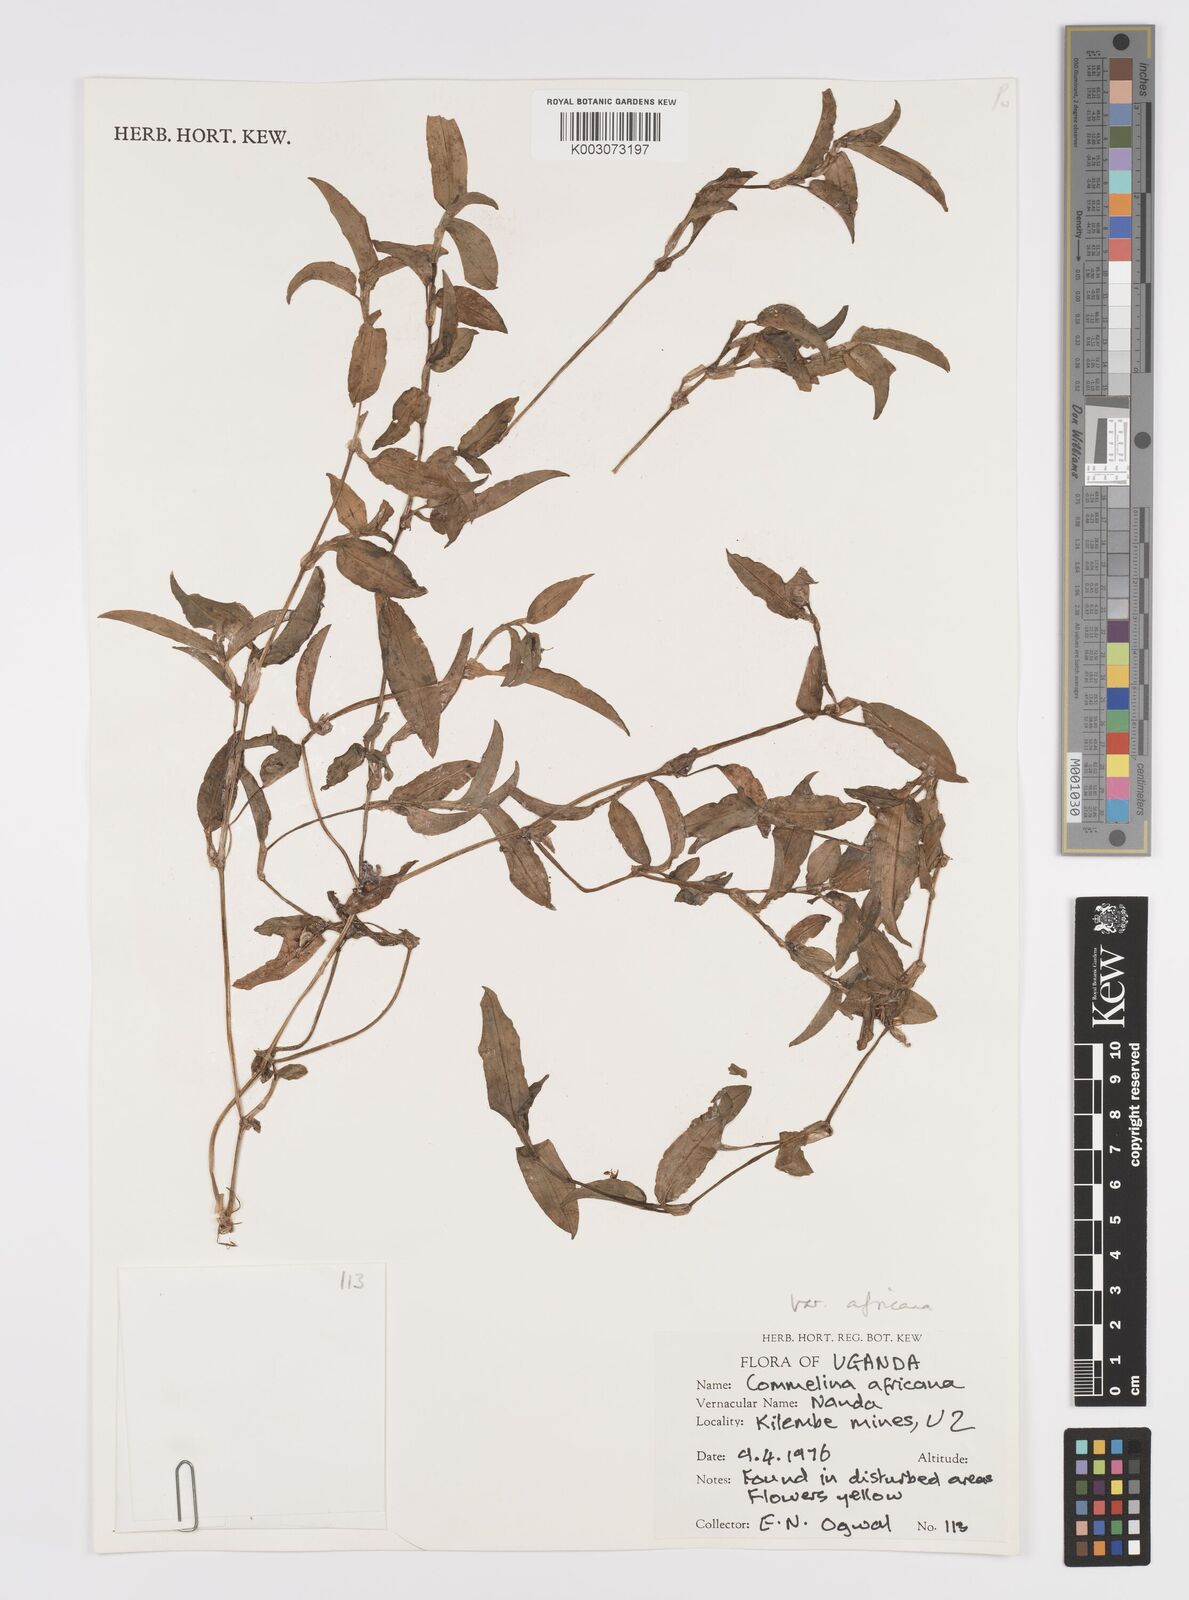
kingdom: Plantae
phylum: Tracheophyta
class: Liliopsida
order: Commelinales
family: Commelinaceae
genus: Commelina
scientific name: Commelina africana
